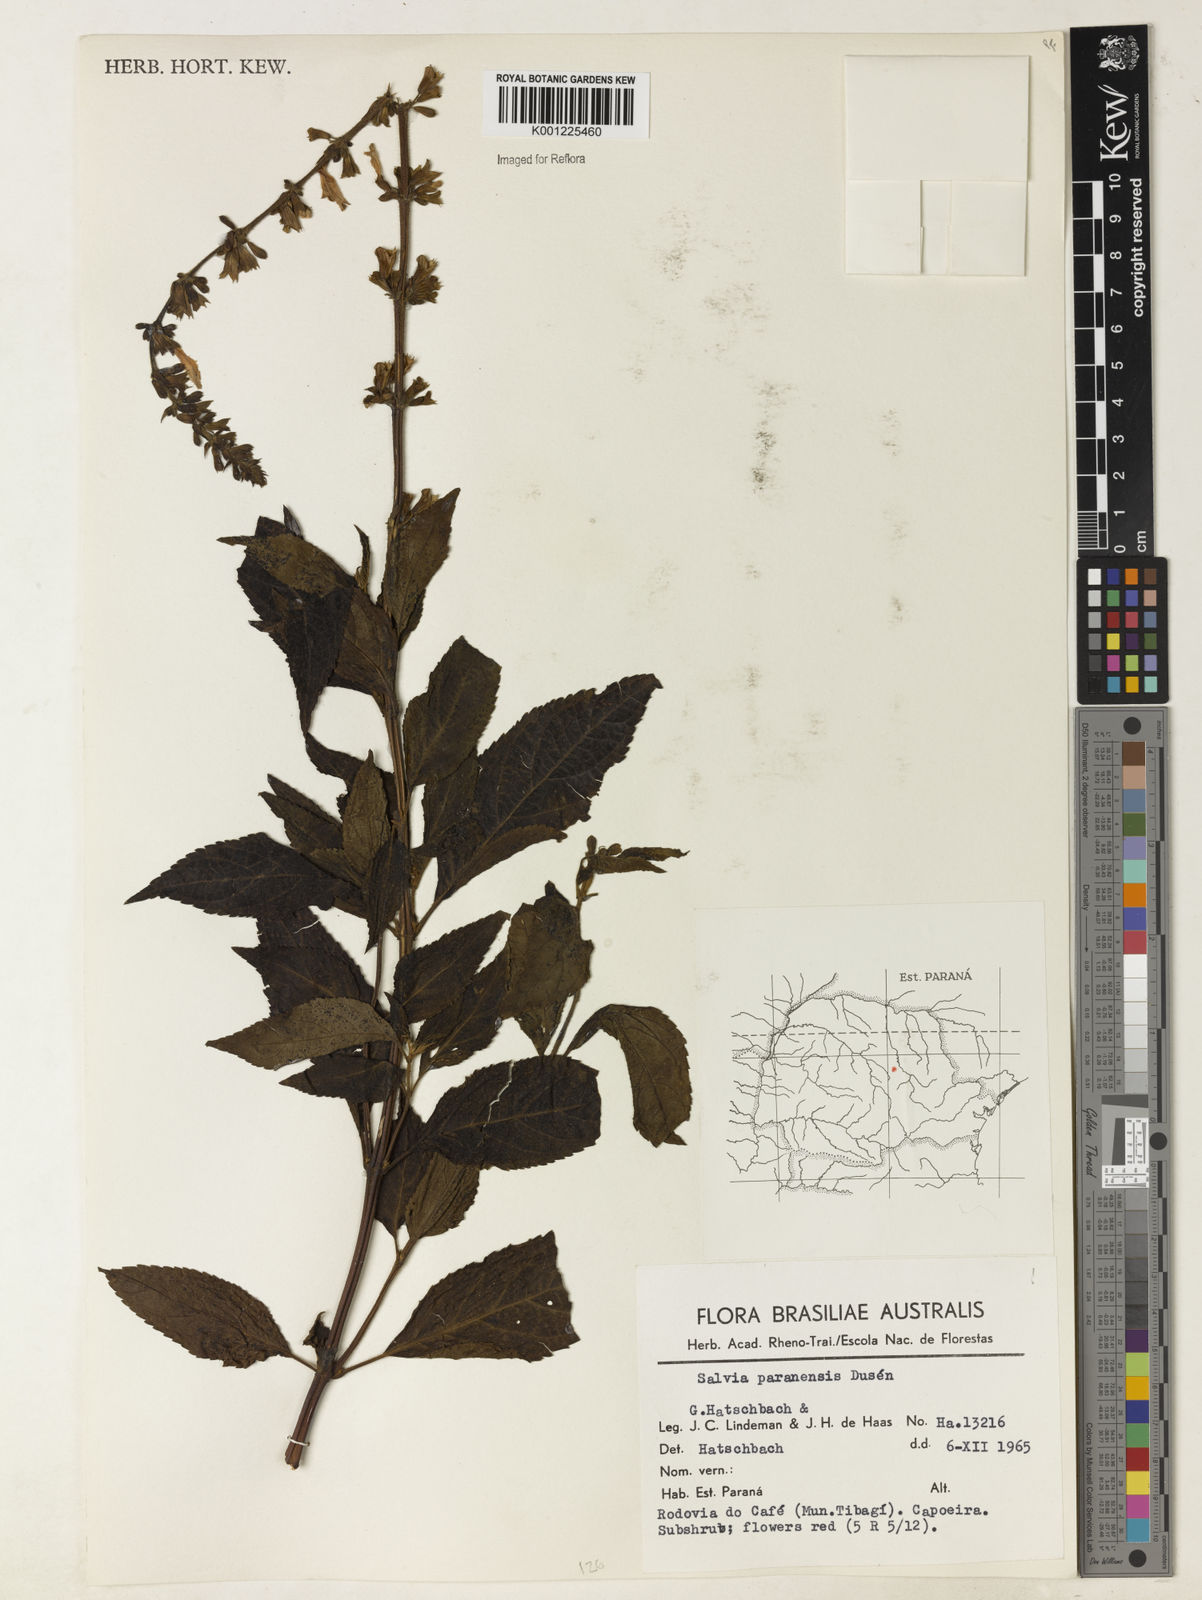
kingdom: Plantae
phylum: Tracheophyta
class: Magnoliopsida
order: Lamiales
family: Lamiaceae
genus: Salvia
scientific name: Salvia melissiflora
